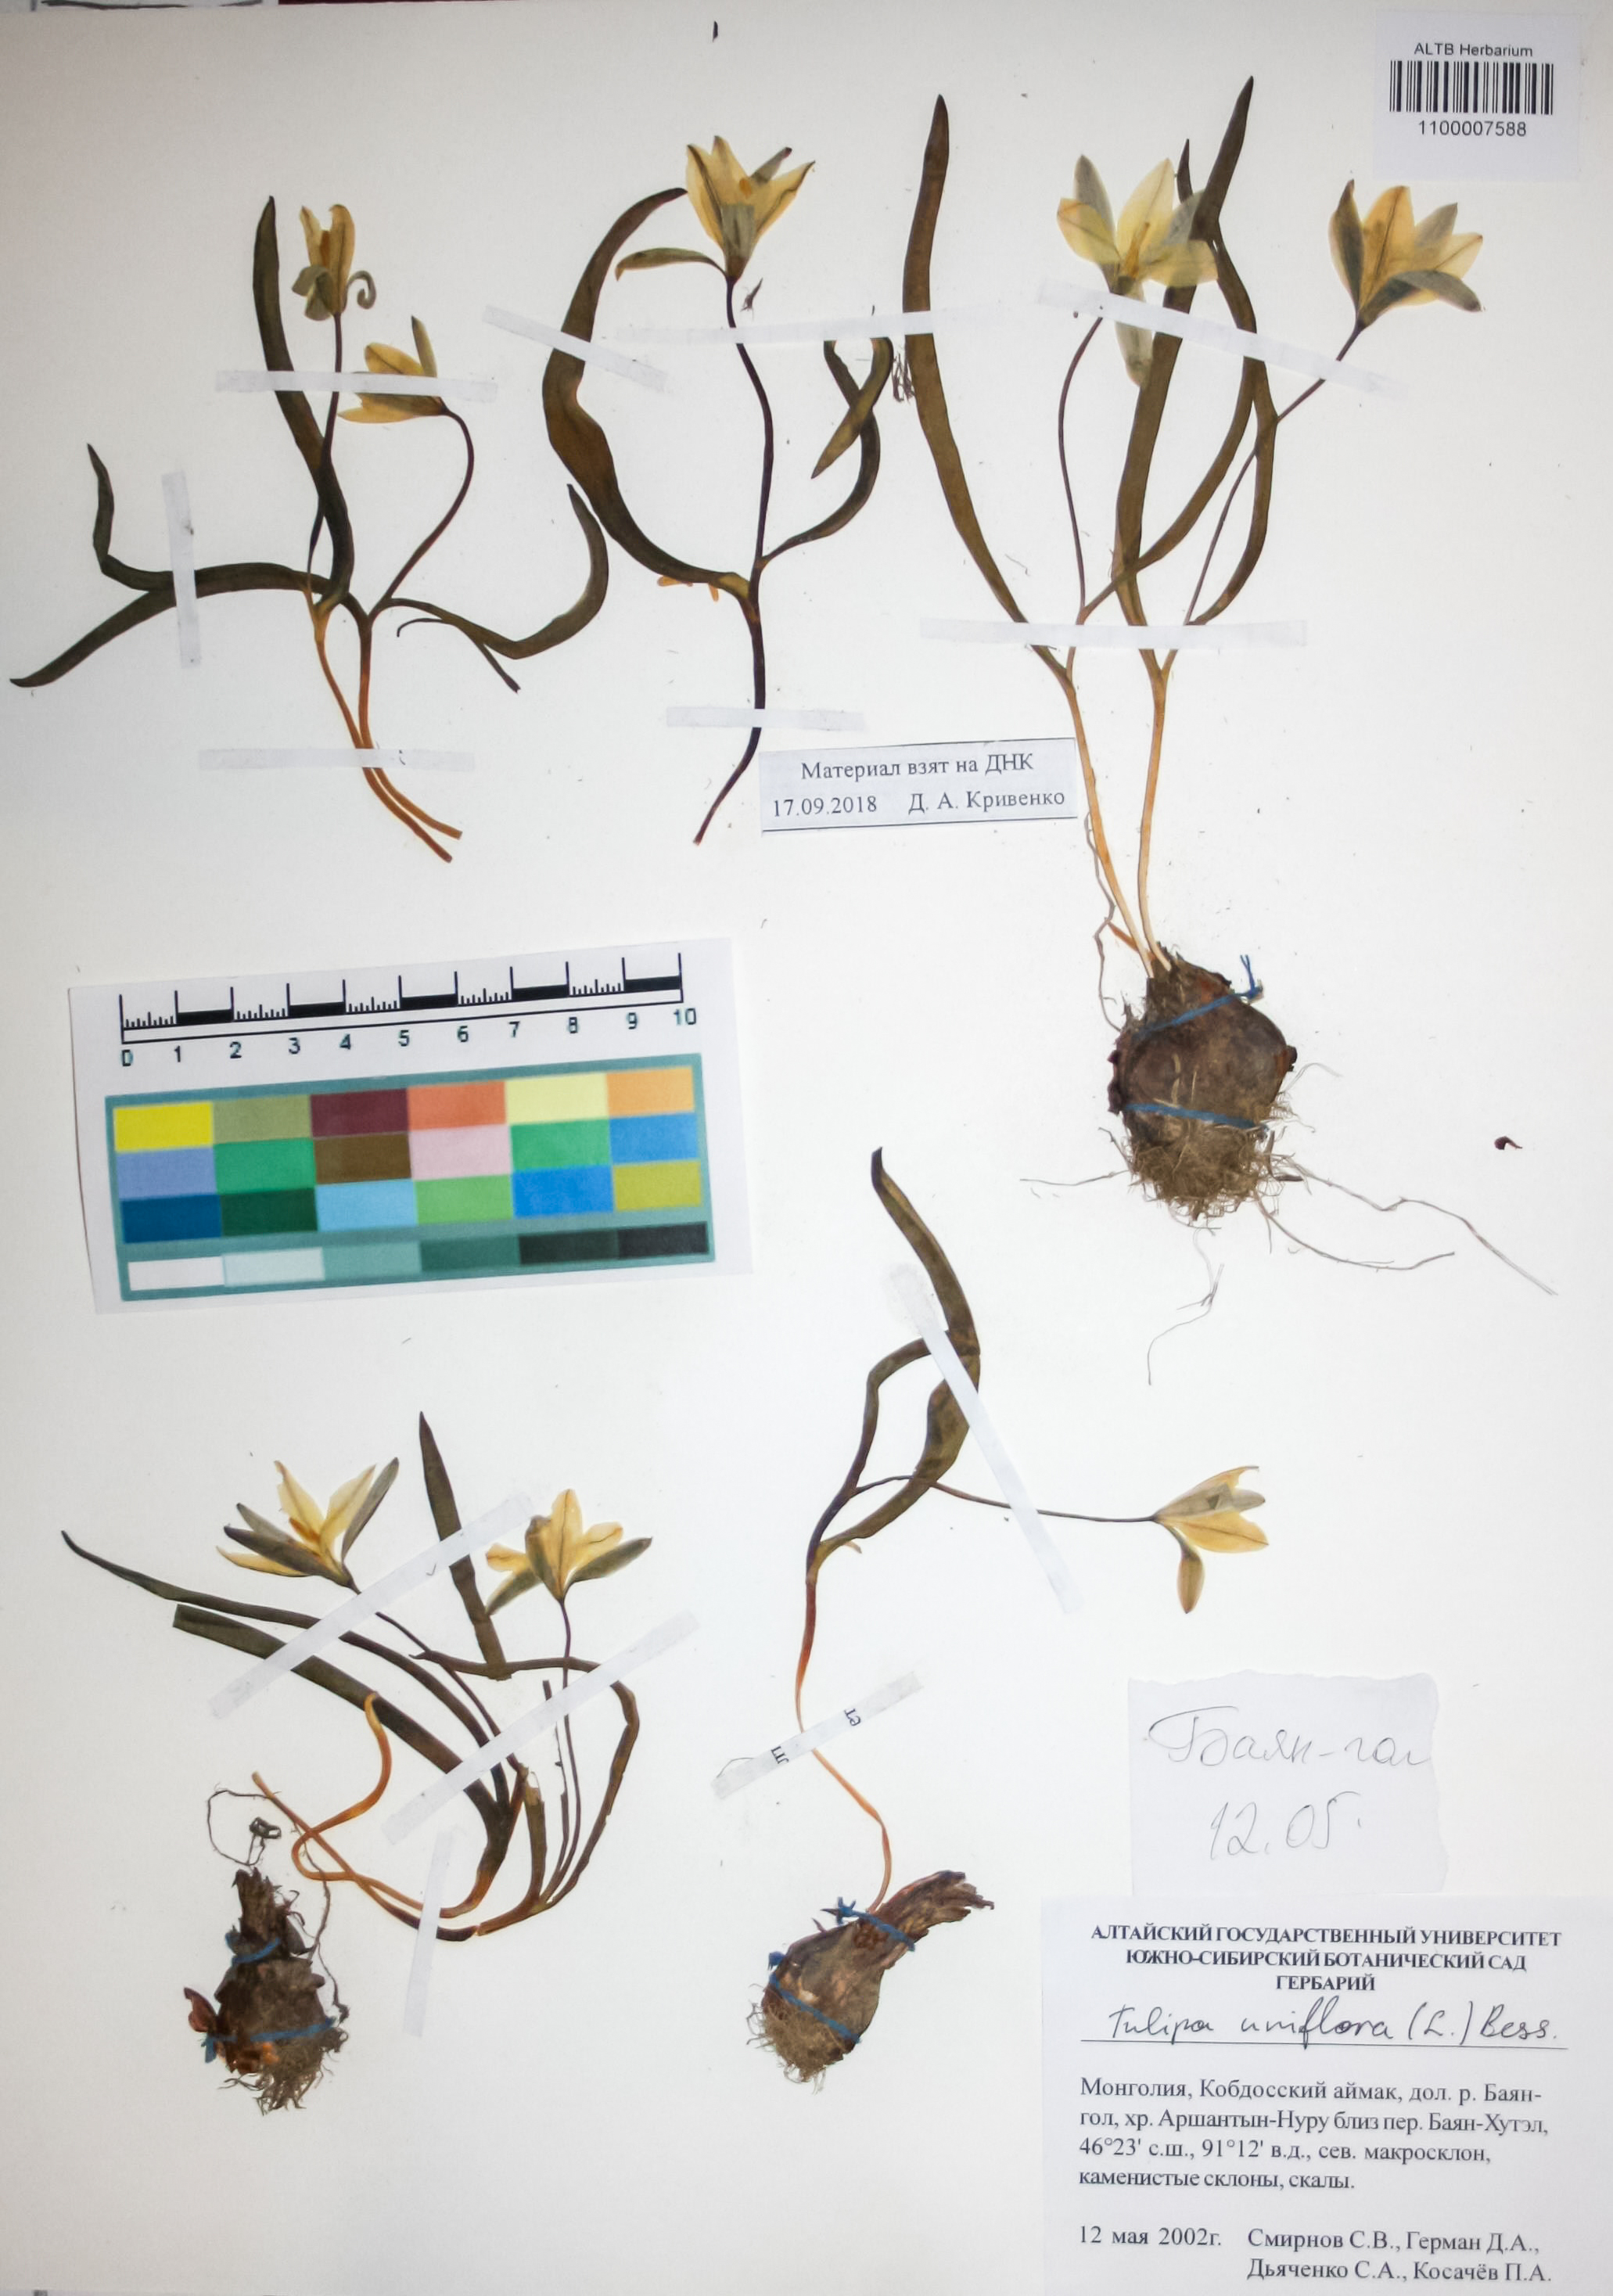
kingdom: Plantae
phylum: Tracheophyta
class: Liliopsida
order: Liliales
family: Liliaceae
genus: Tulipa
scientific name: Tulipa uniflora
